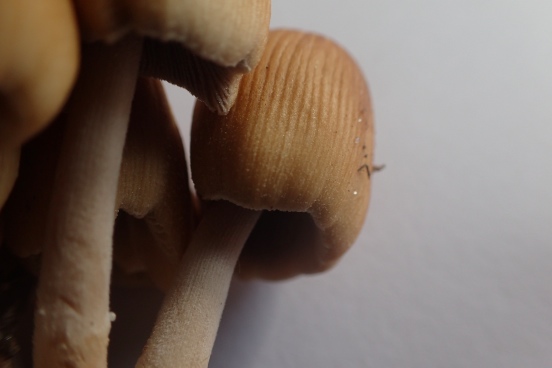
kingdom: Fungi
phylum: Basidiomycota
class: Agaricomycetes
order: Agaricales
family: Psathyrellaceae
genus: Coprinellus
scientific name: Coprinellus micaceus
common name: glimmer-blækhat
